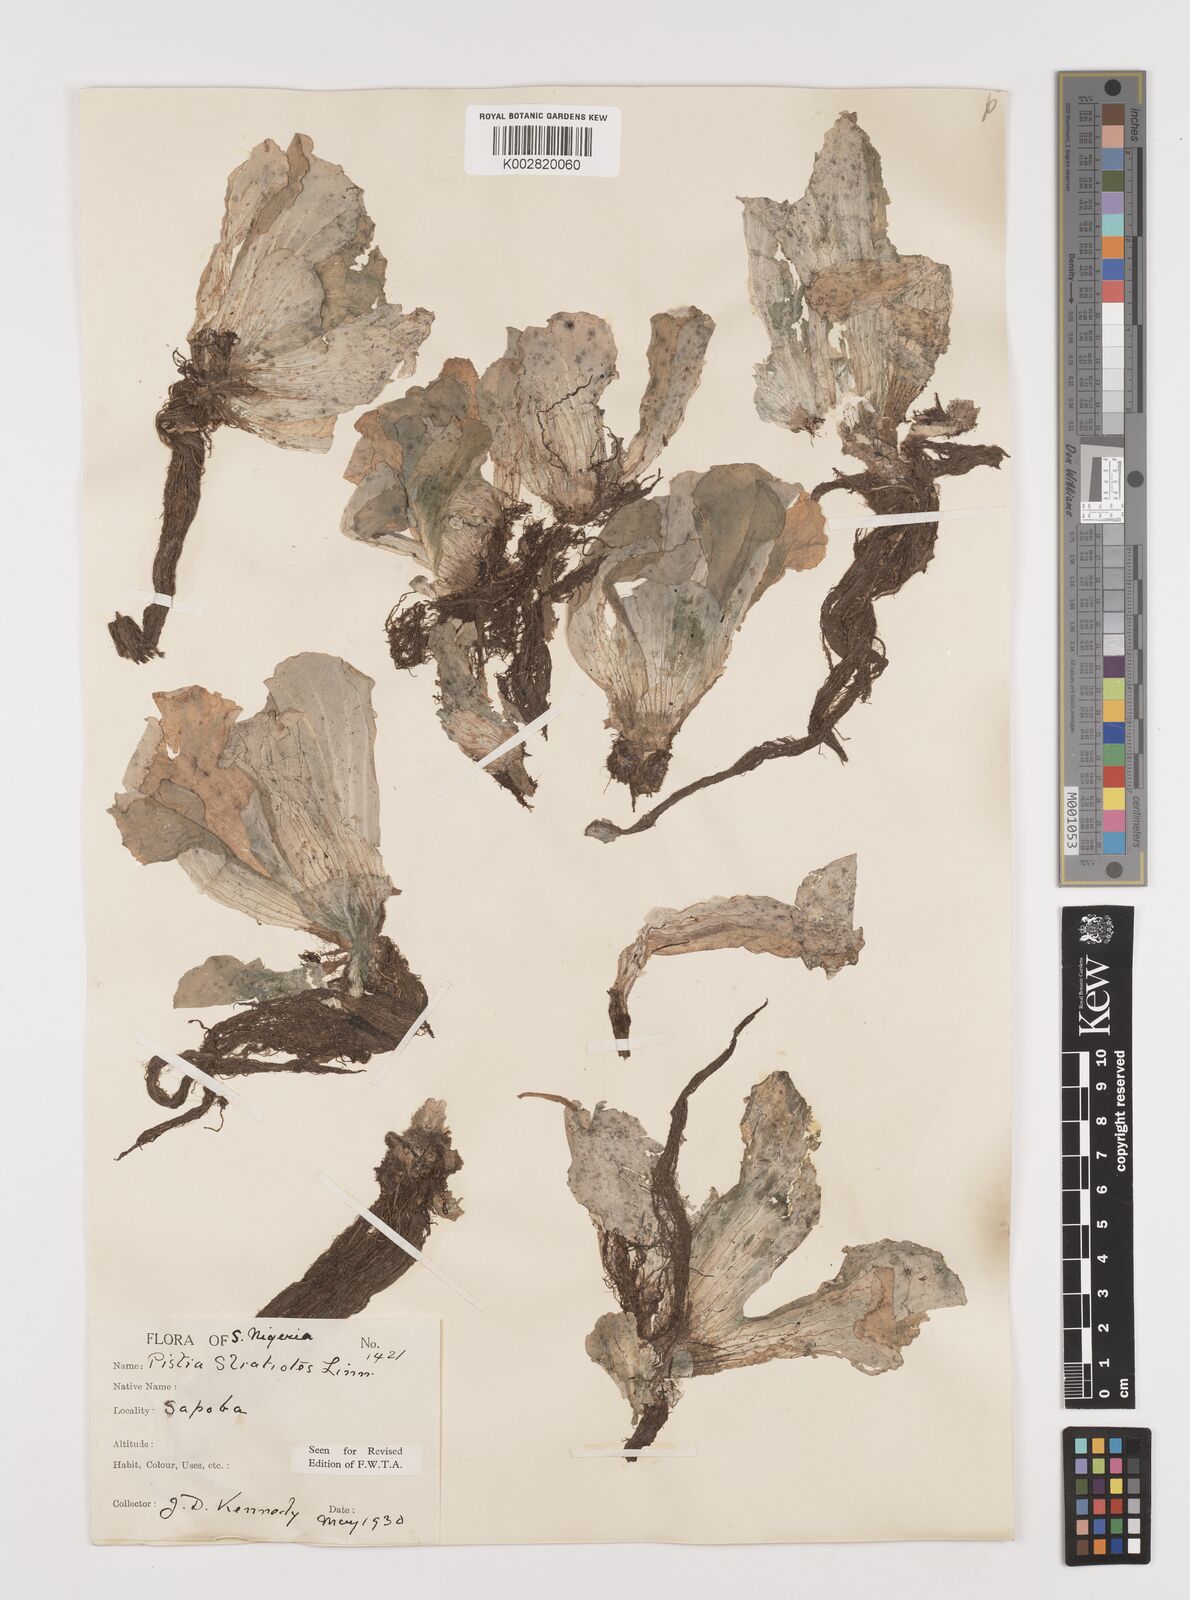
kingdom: Plantae
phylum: Tracheophyta
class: Liliopsida
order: Alismatales
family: Araceae
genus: Pistia
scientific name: Pistia stratiotes
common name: Water lettuce
